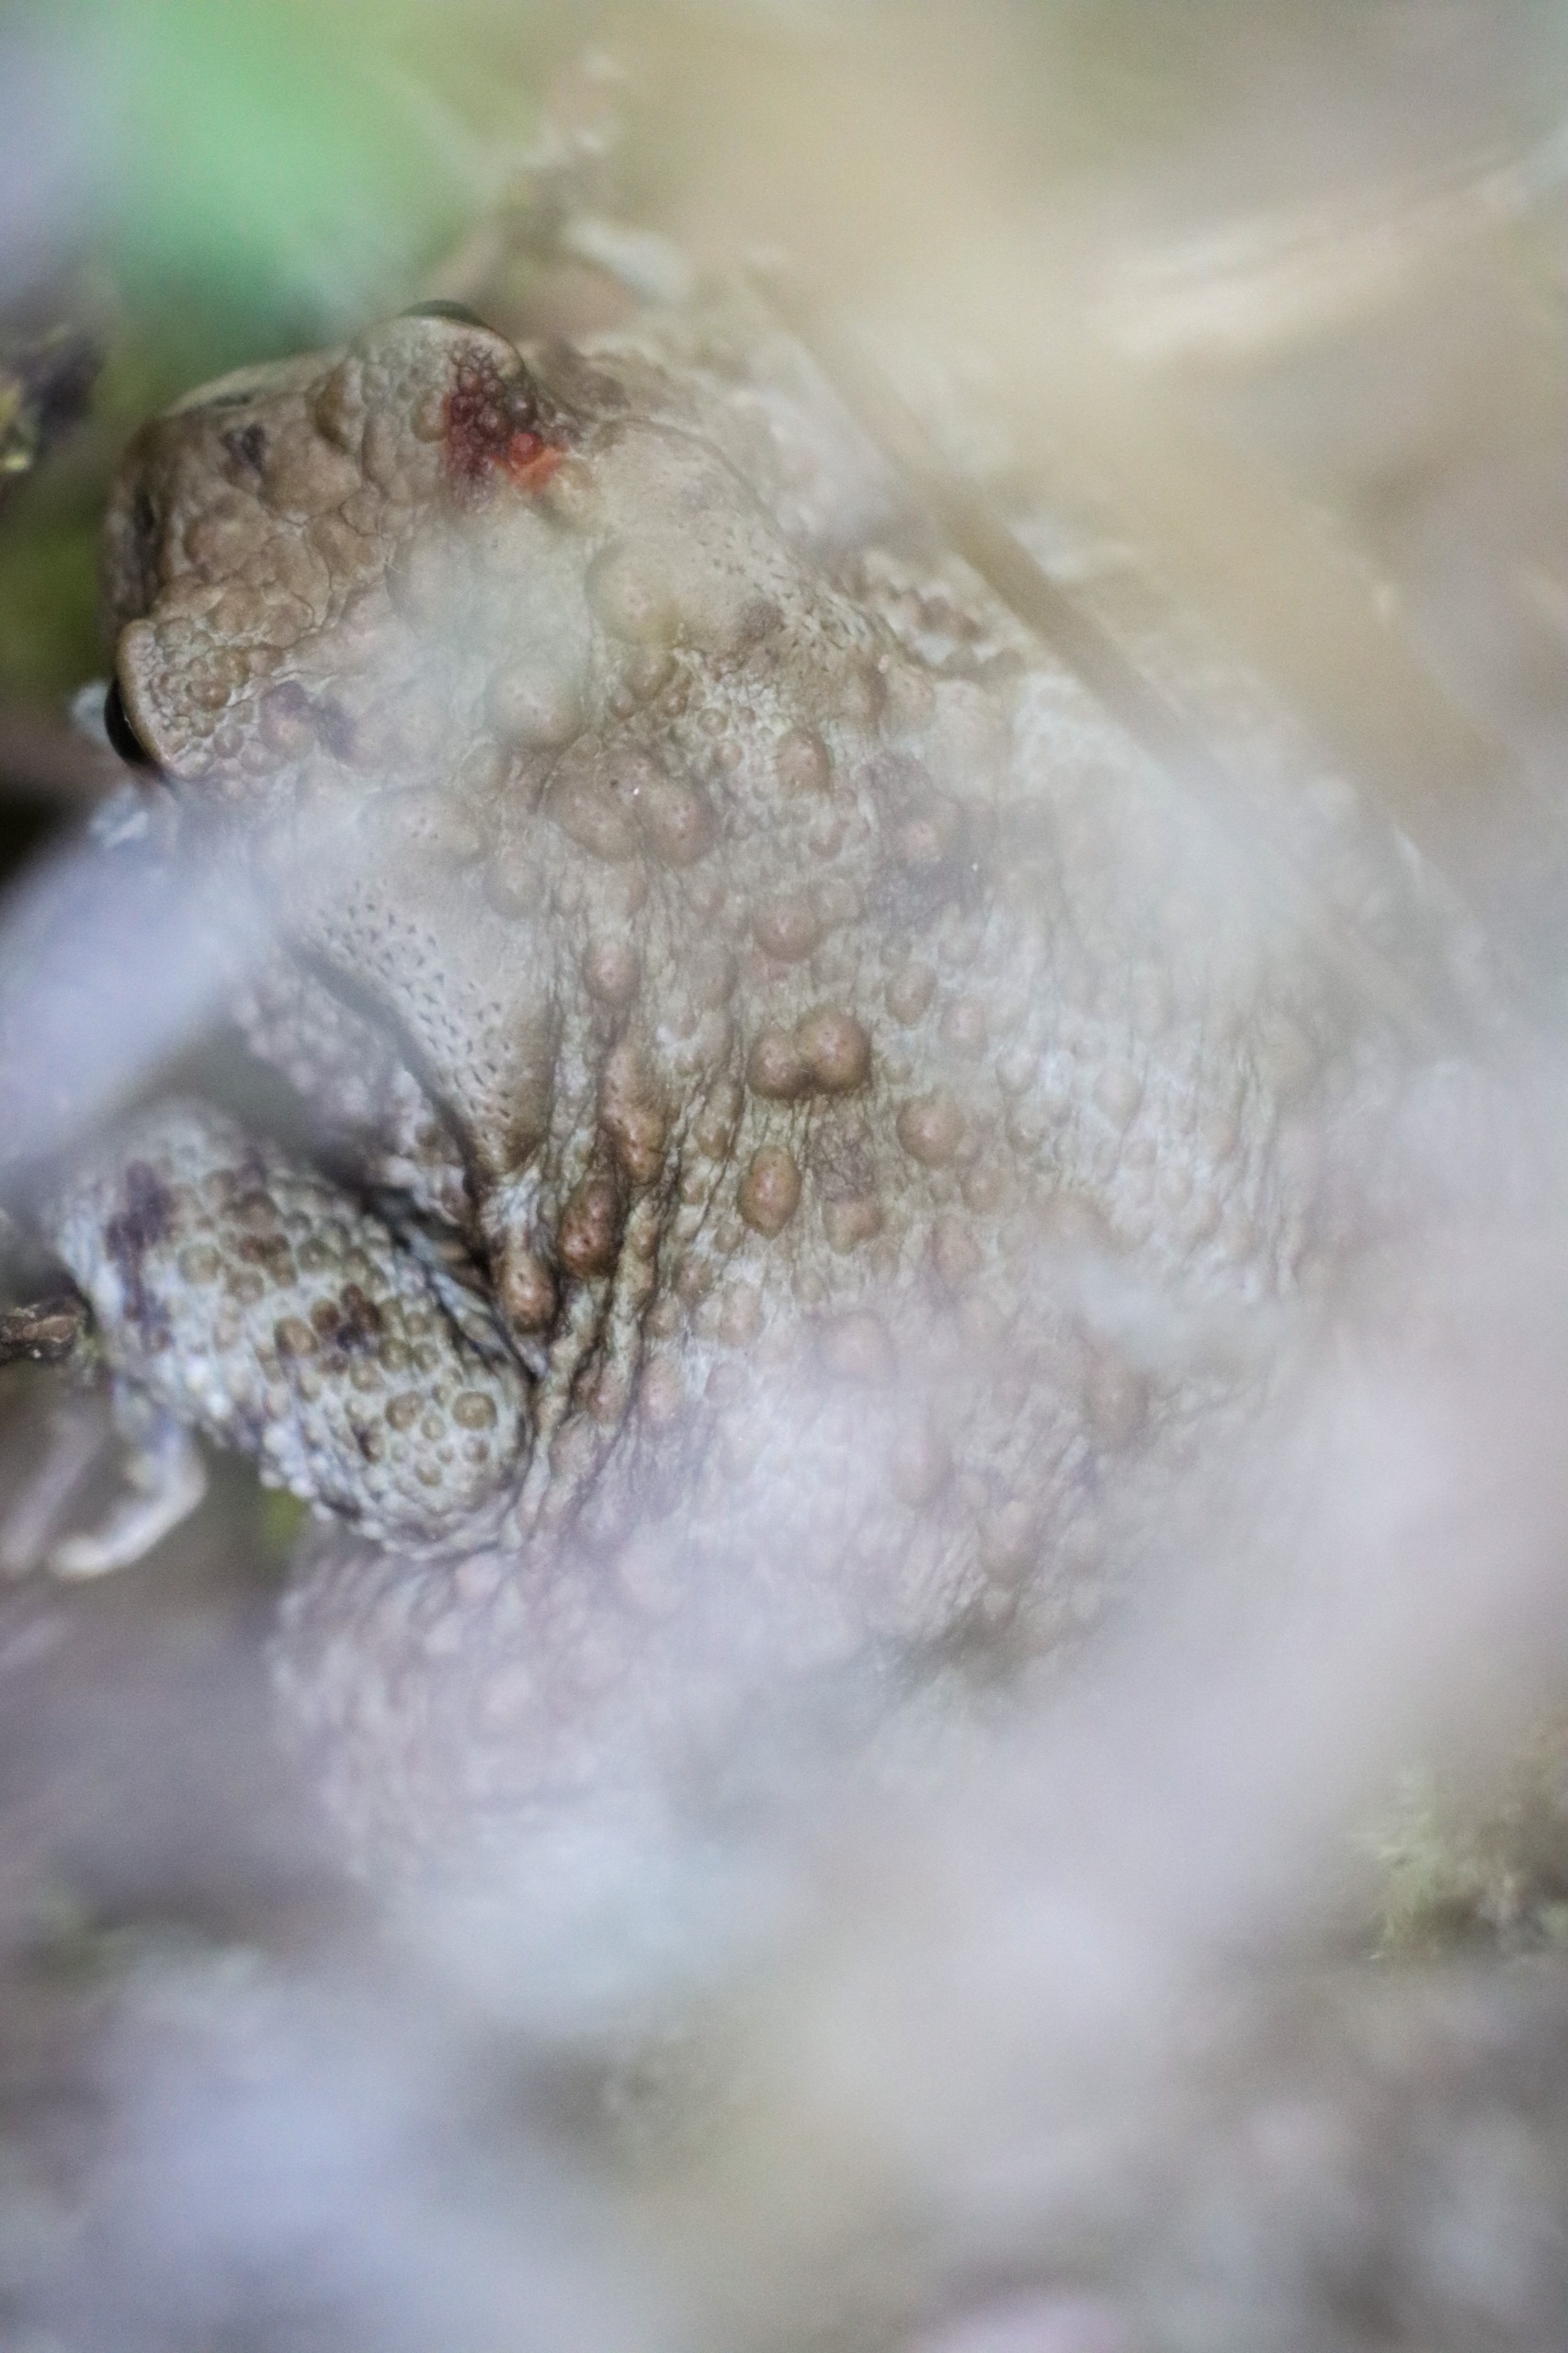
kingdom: Animalia
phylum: Chordata
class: Amphibia
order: Anura
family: Bufonidae
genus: Bufo
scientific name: Bufo bufo
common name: Skrubtudse
